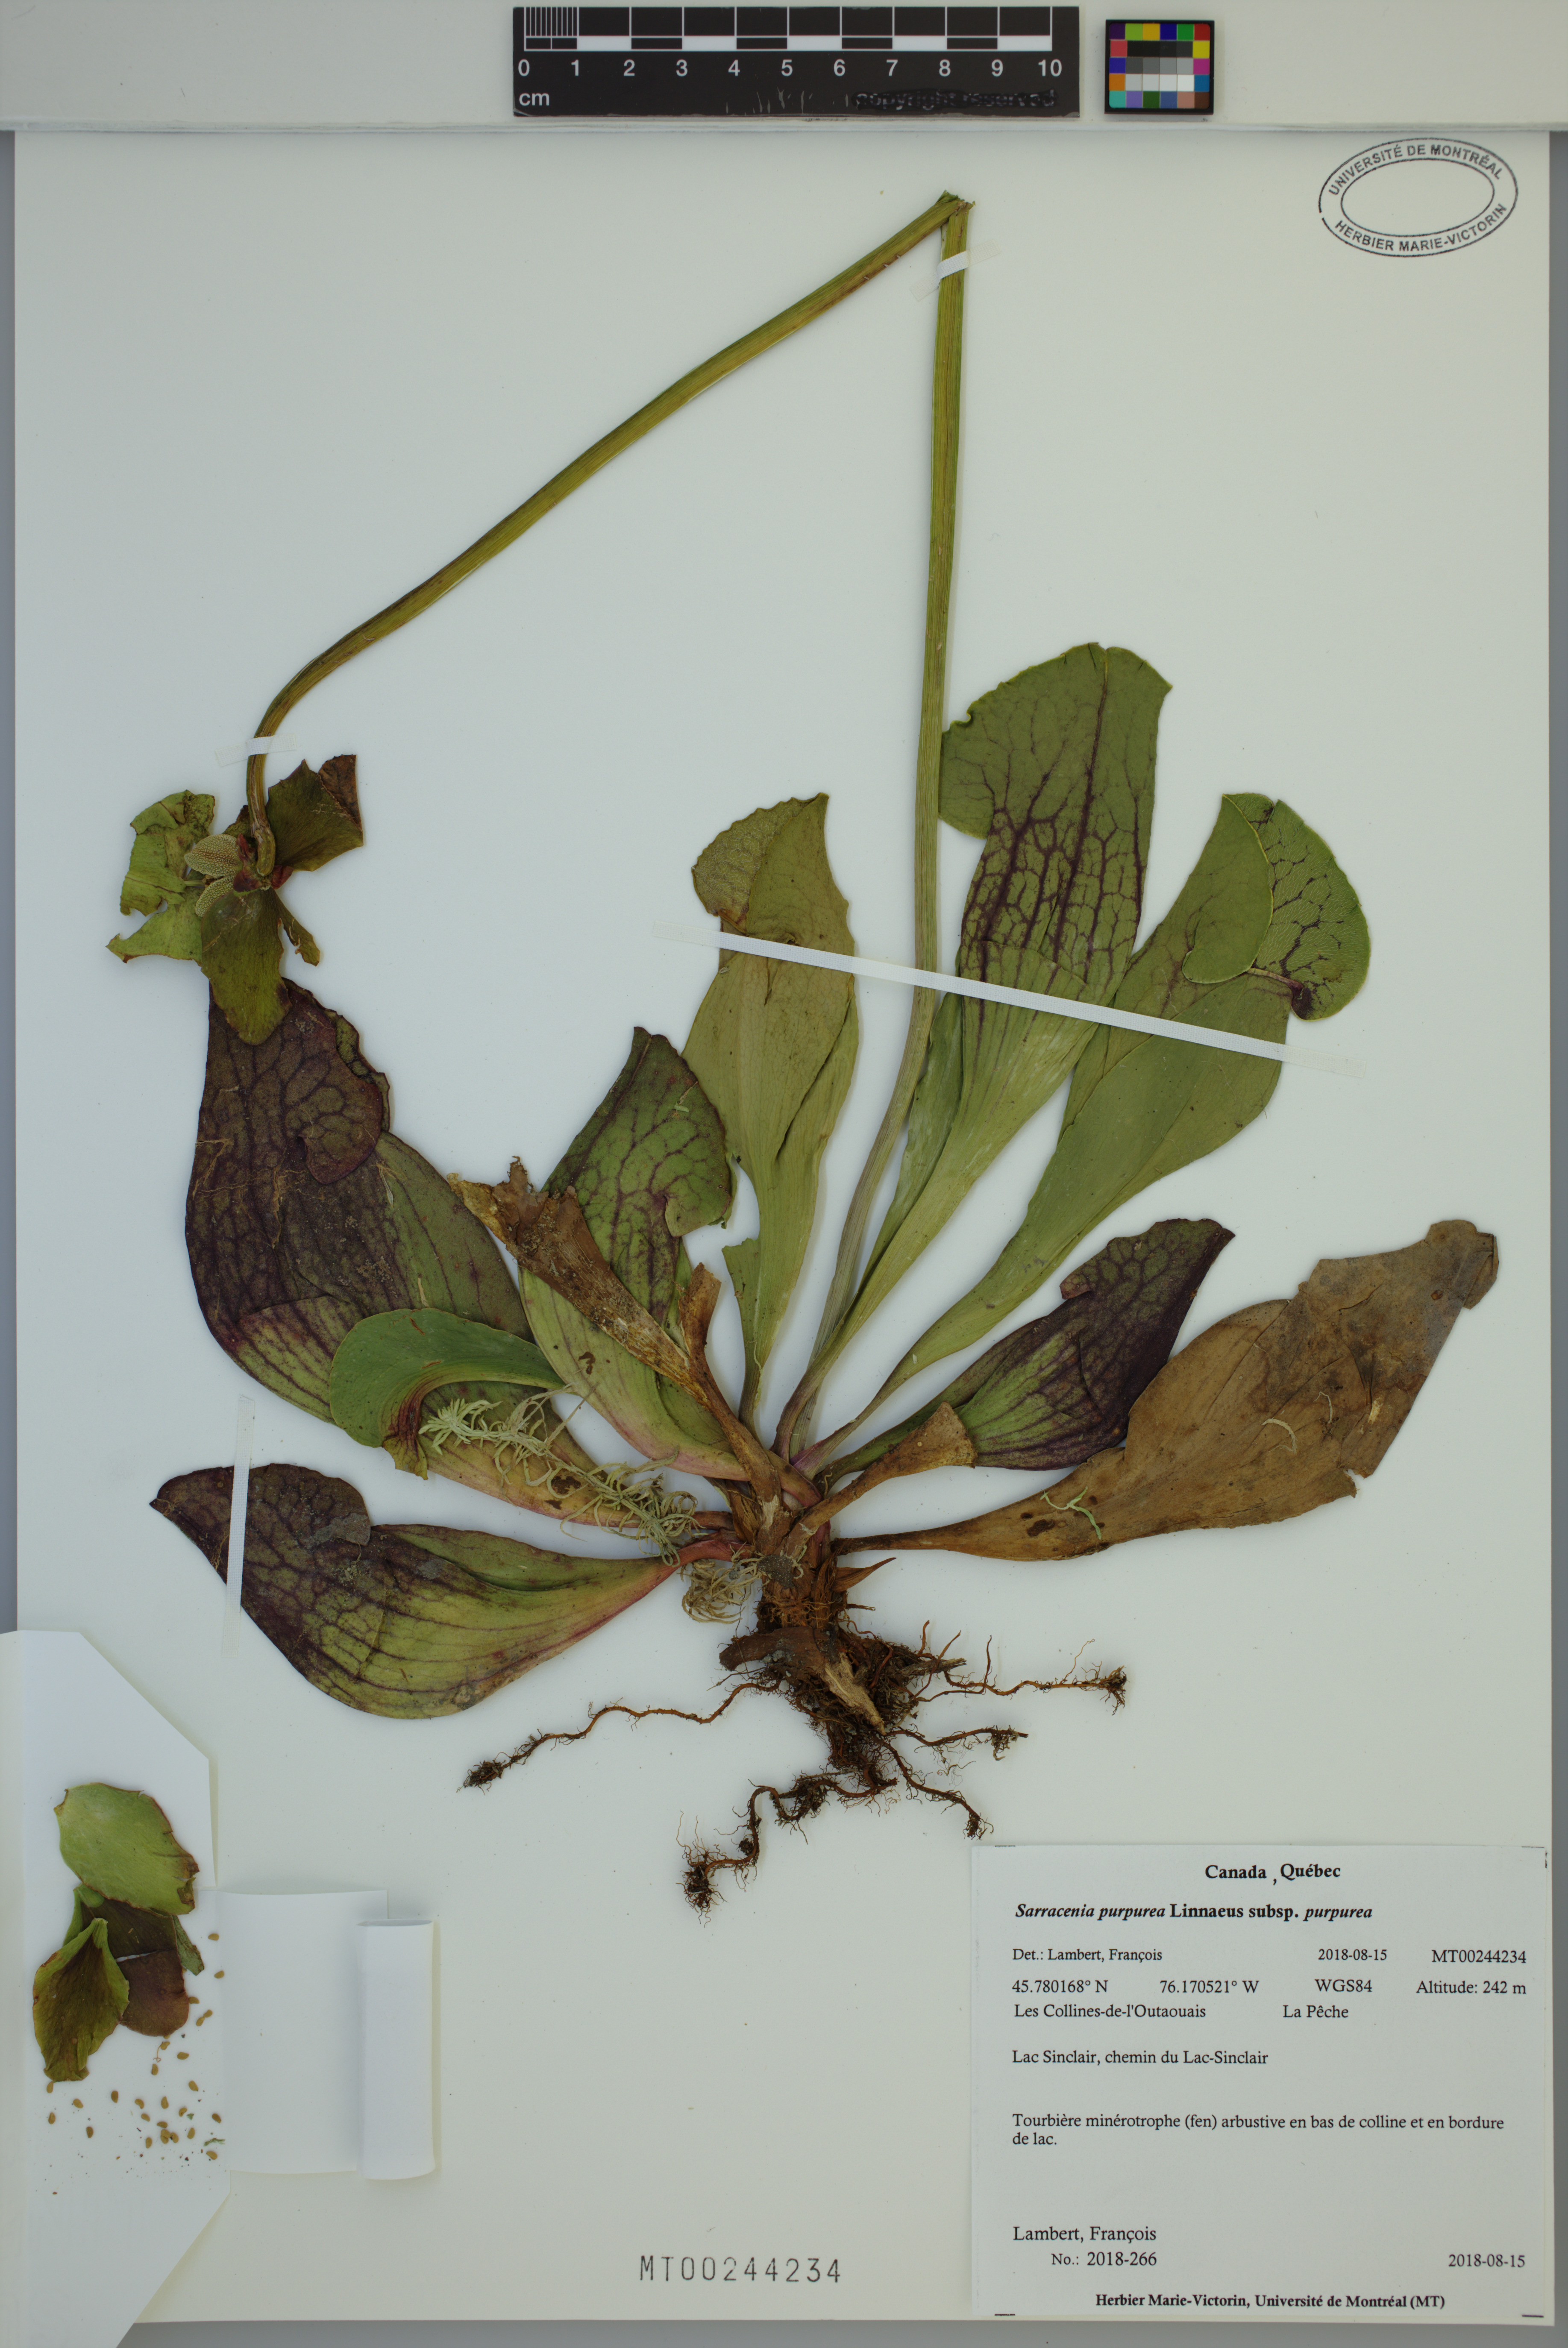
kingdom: Plantae
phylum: Tracheophyta
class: Magnoliopsida
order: Ericales
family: Sarraceniaceae
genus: Sarracenia
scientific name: Sarracenia purpurea
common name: Pitcherplant
